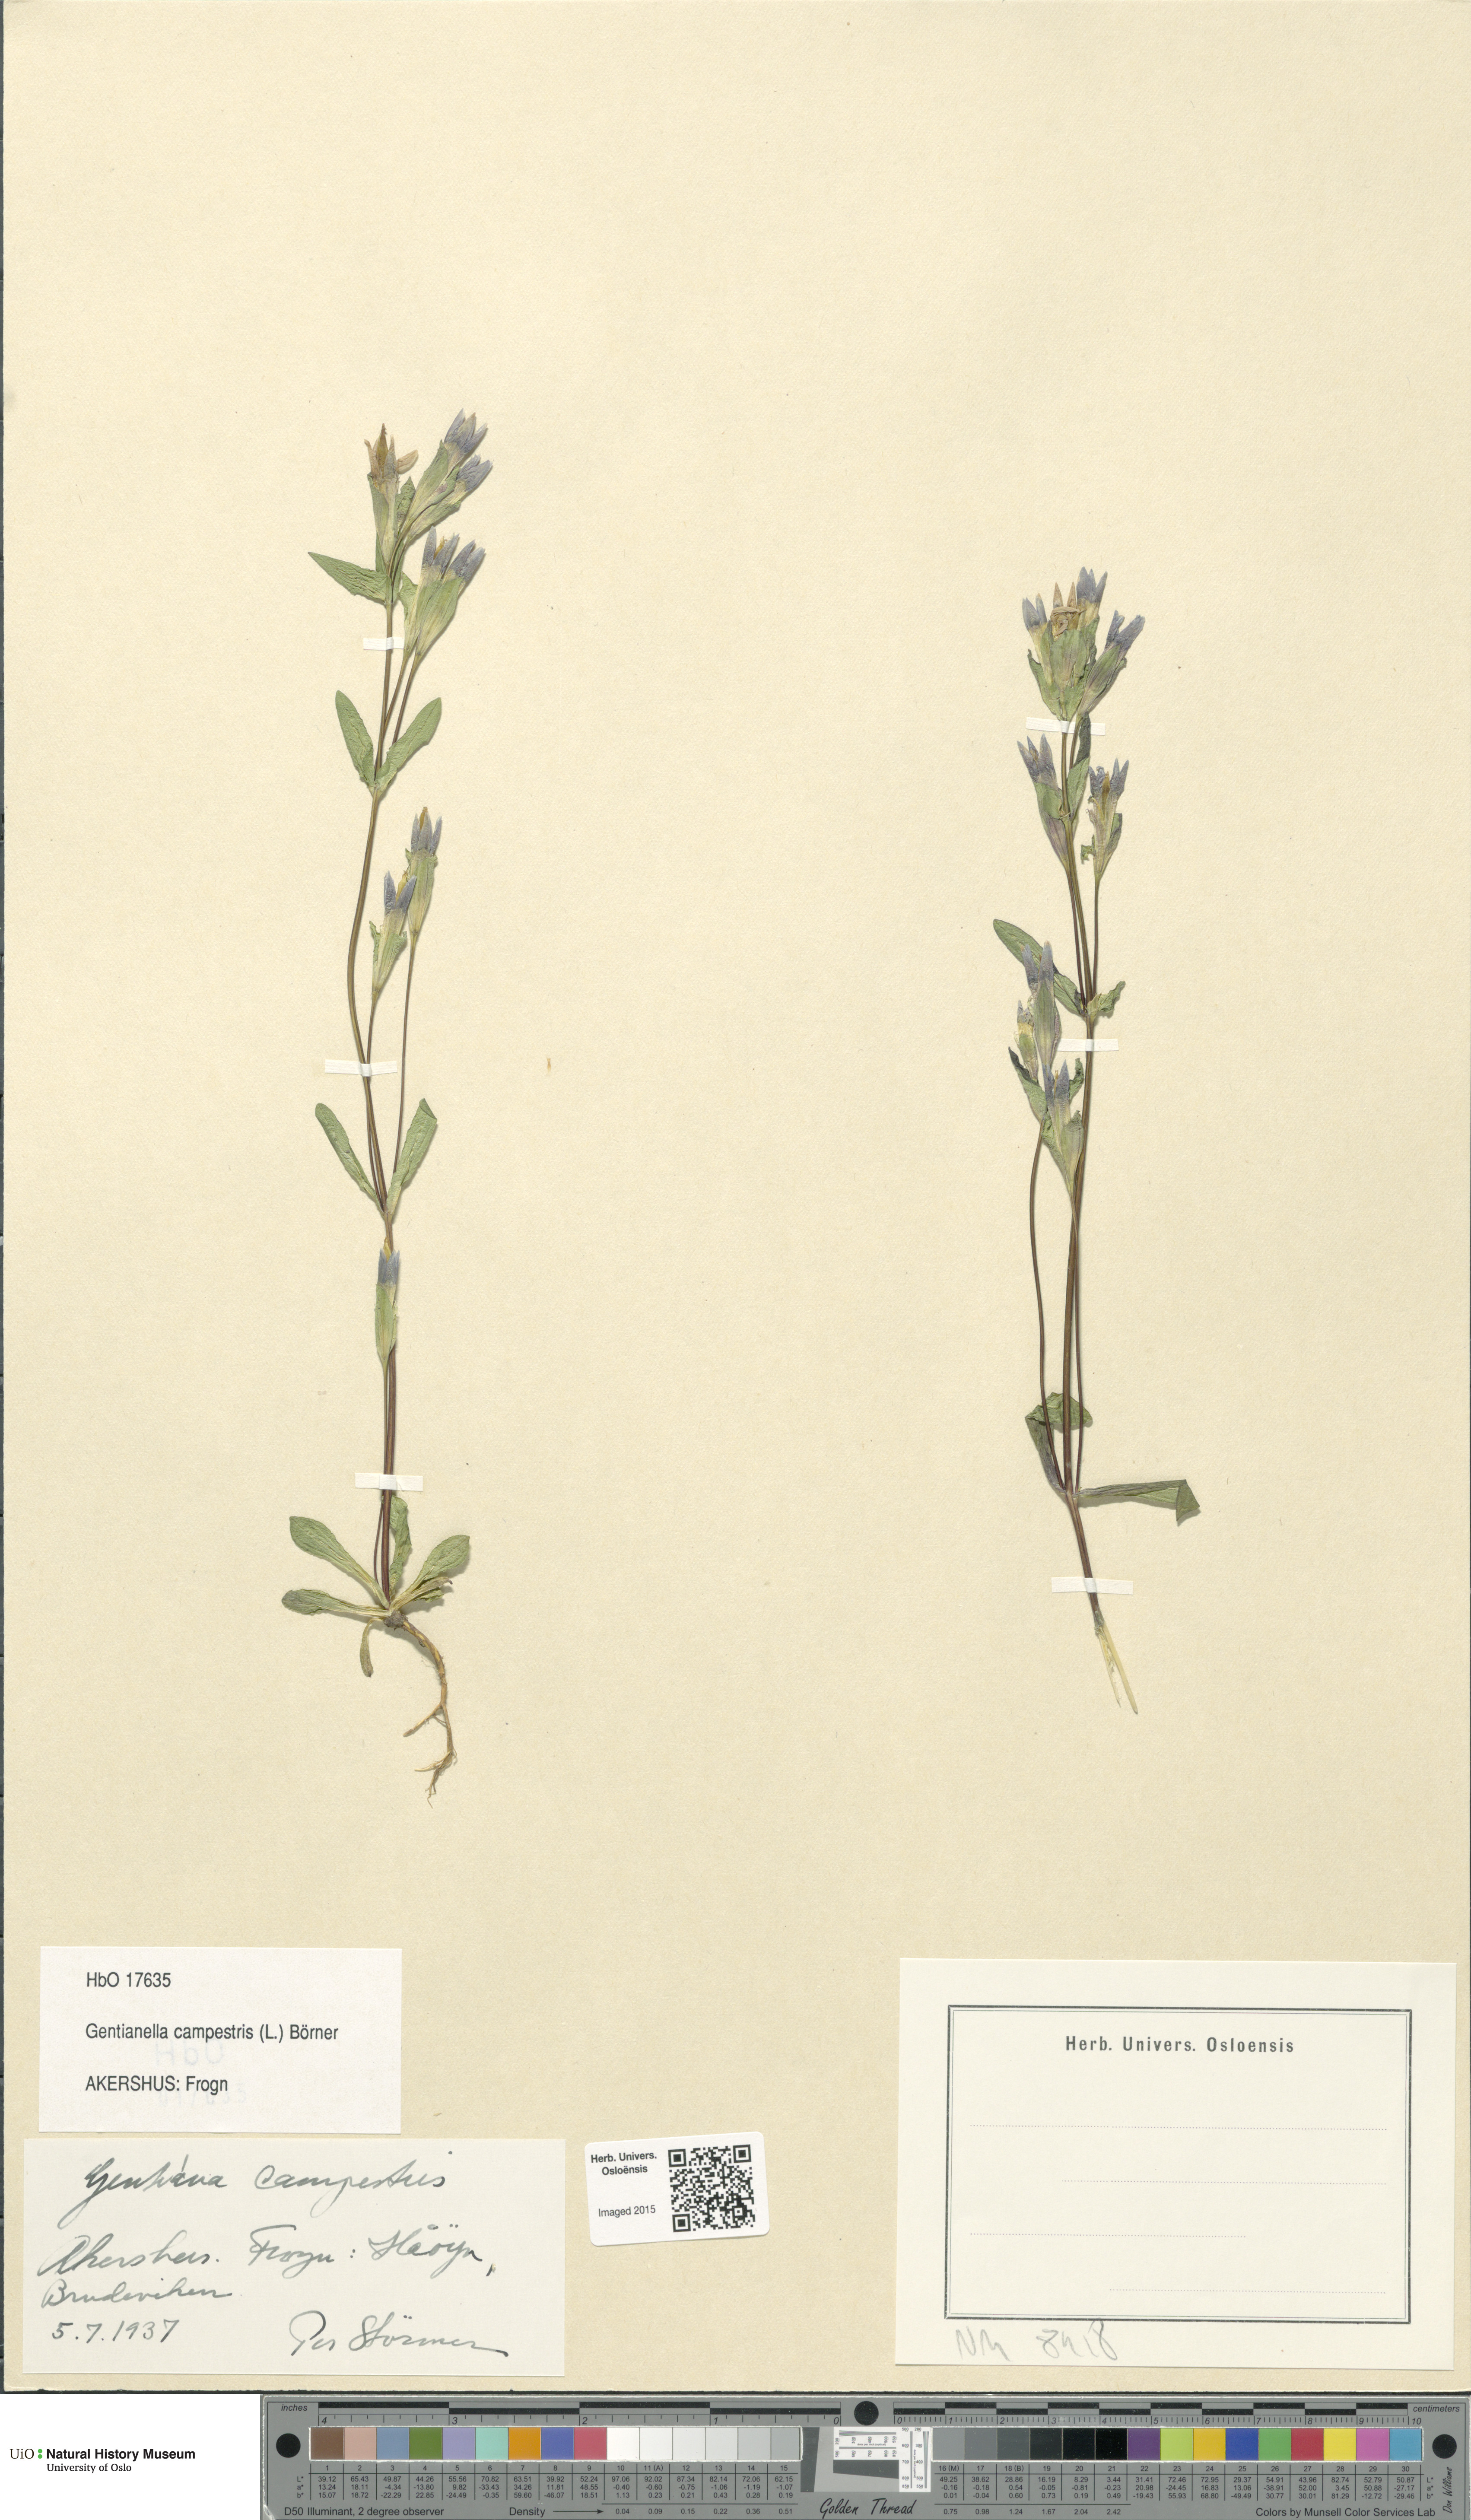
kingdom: Plantae
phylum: Tracheophyta
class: Magnoliopsida
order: Gentianales
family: Gentianaceae
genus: Gentianella
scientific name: Gentianella campestris
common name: Field gentian
